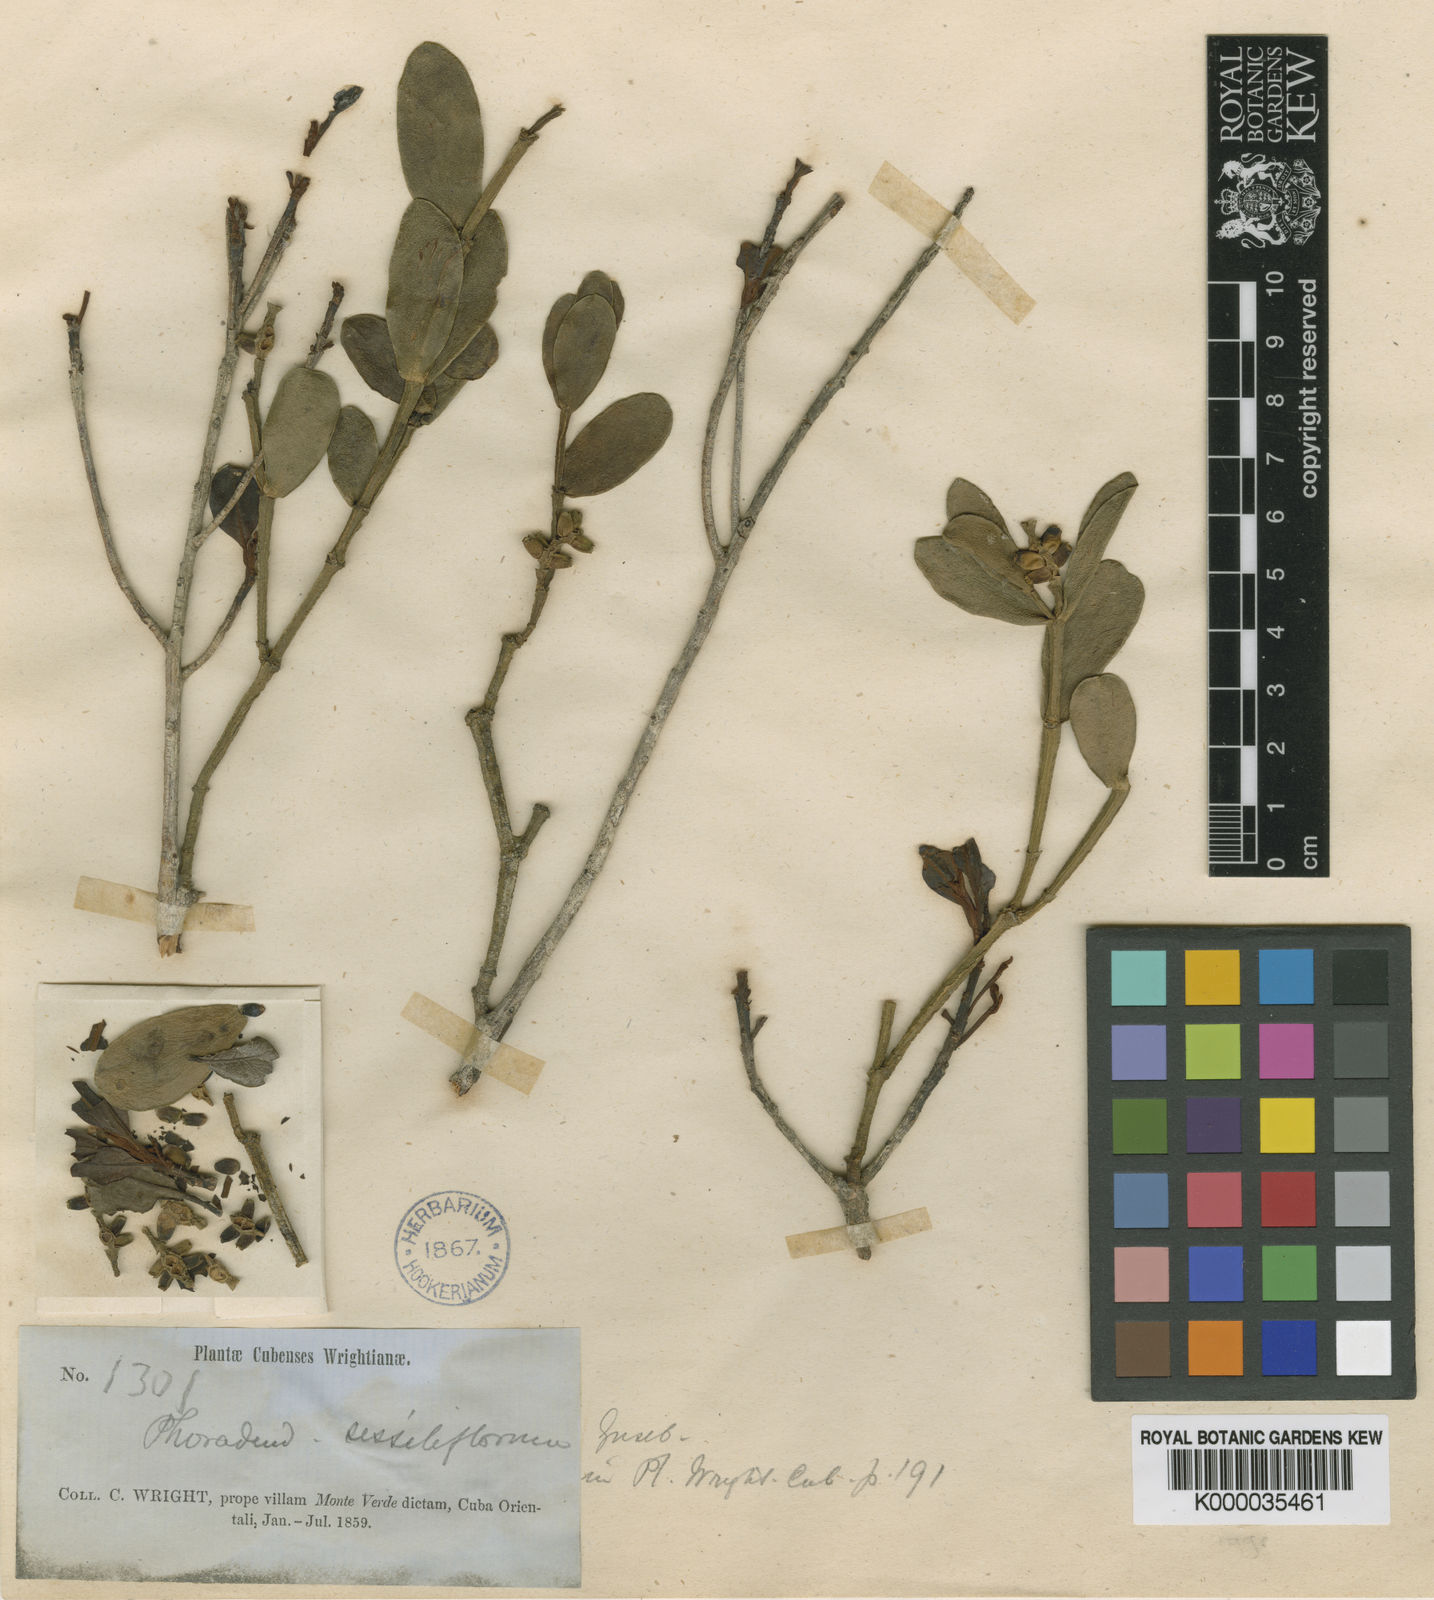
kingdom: Plantae
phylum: Tracheophyta
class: Magnoliopsida
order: Santalales
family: Viscaceae
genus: Dendrophthora
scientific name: Dendrophthora sessilifolia
